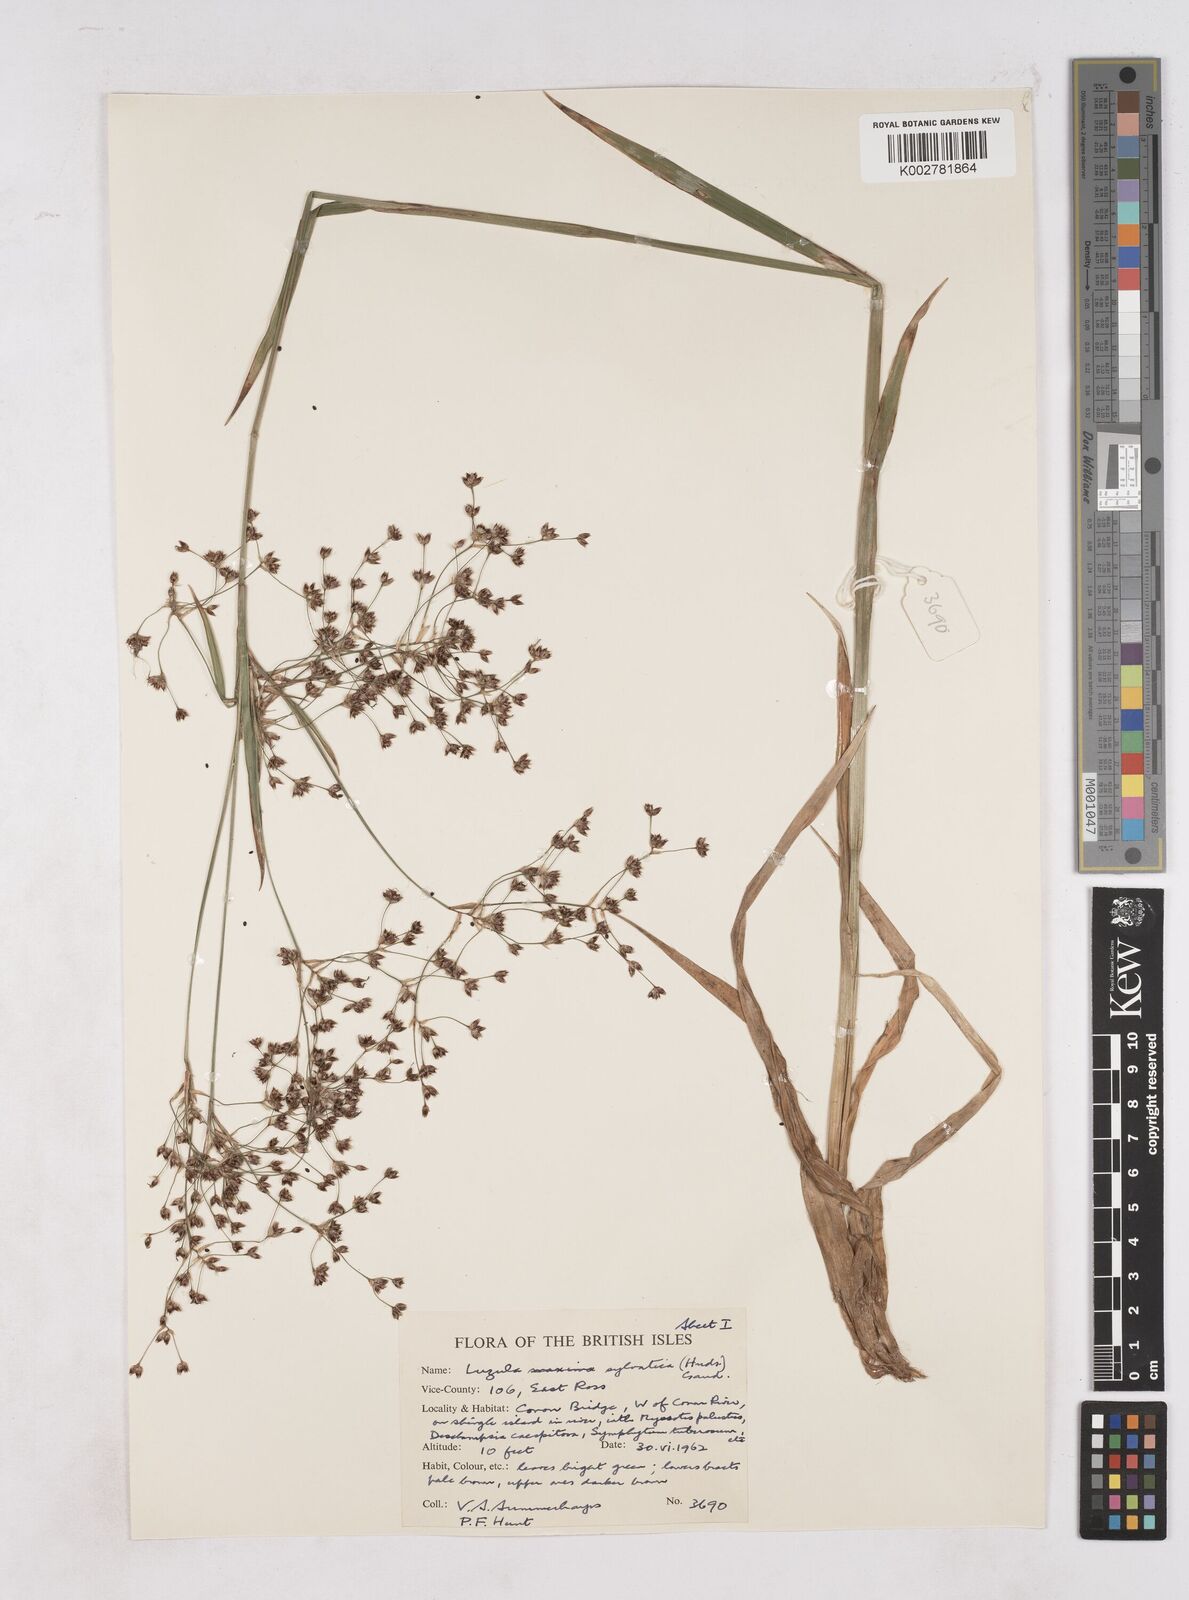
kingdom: Plantae
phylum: Tracheophyta
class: Liliopsida
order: Poales
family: Juncaceae
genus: Luzula
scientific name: Luzula sylvatica
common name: Great wood-rush
